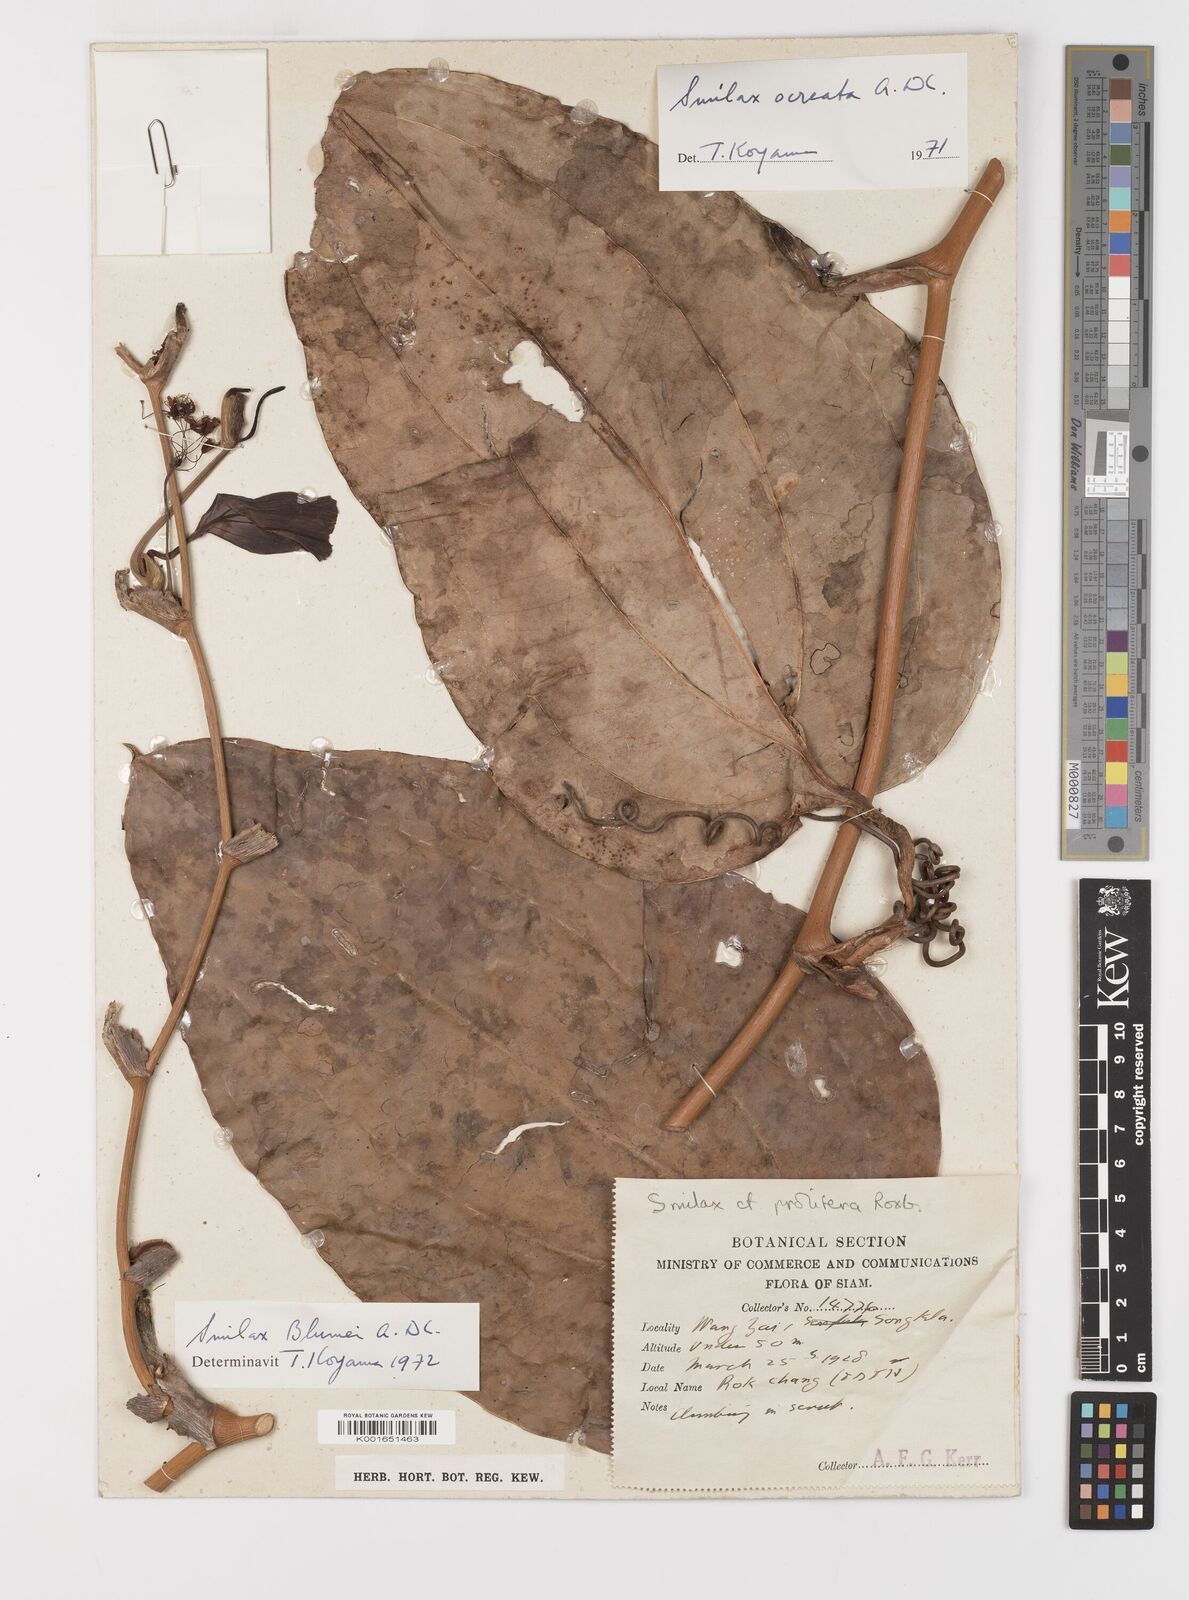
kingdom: Plantae
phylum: Tracheophyta
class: Liliopsida
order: Liliales
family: Smilacaceae
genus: Smilax
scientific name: Smilax ocreata
